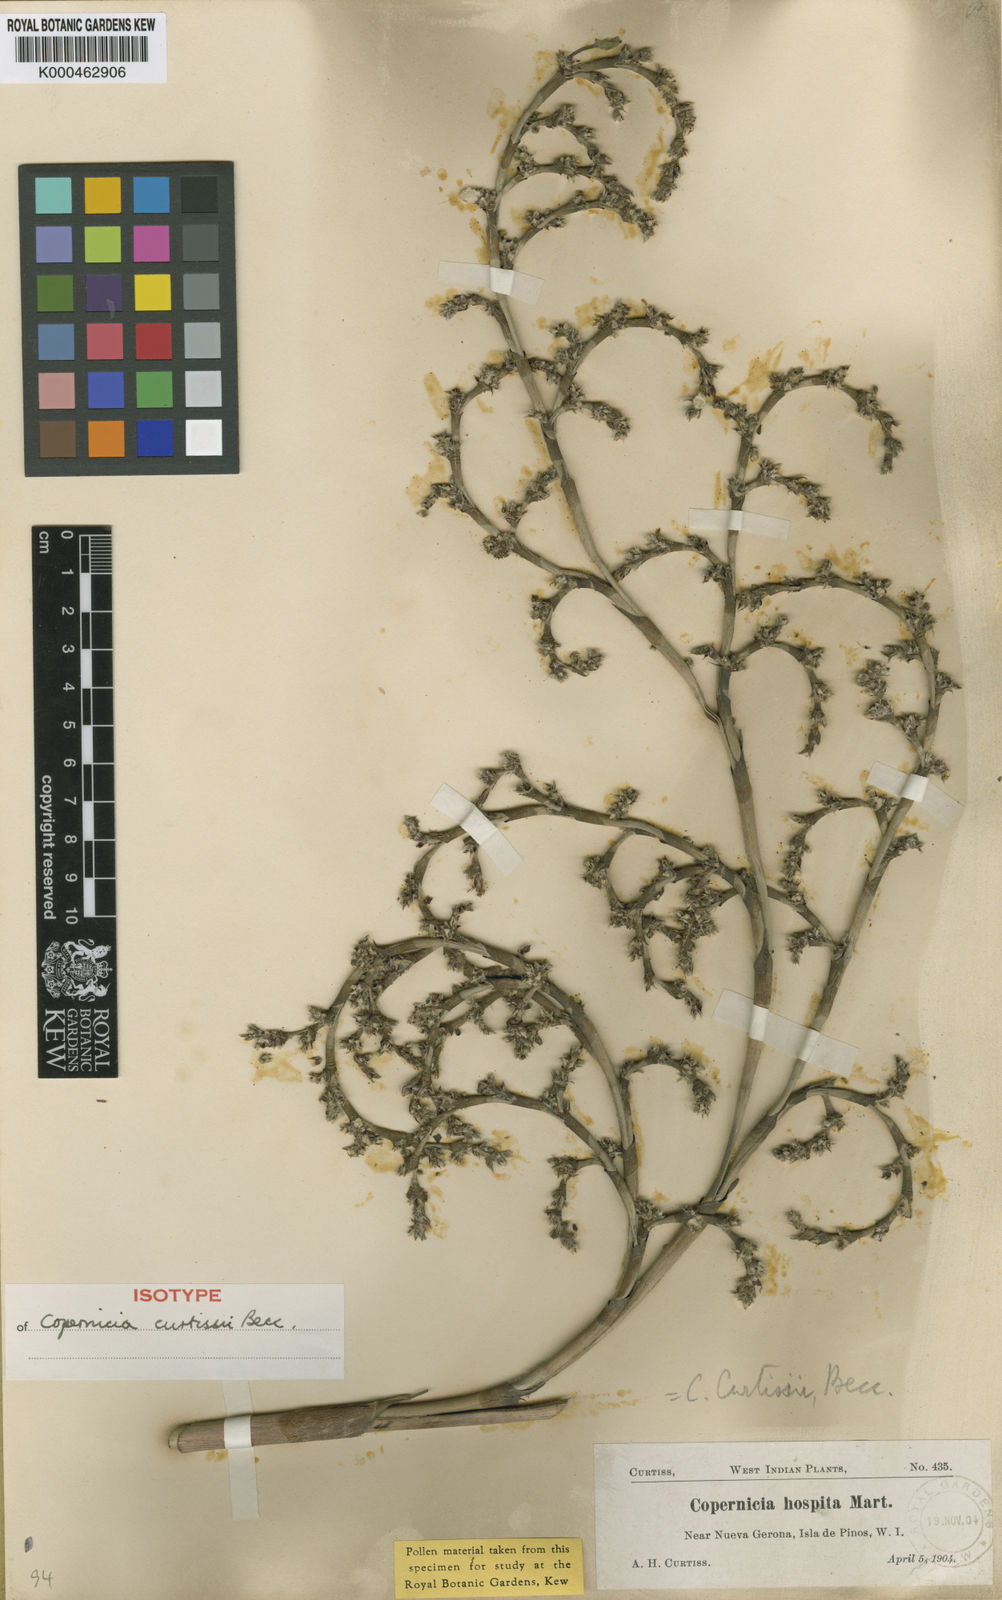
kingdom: Plantae
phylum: Tracheophyta
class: Liliopsida
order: Arecales
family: Arecaceae
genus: Copernicia
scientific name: Copernicia curtissii
